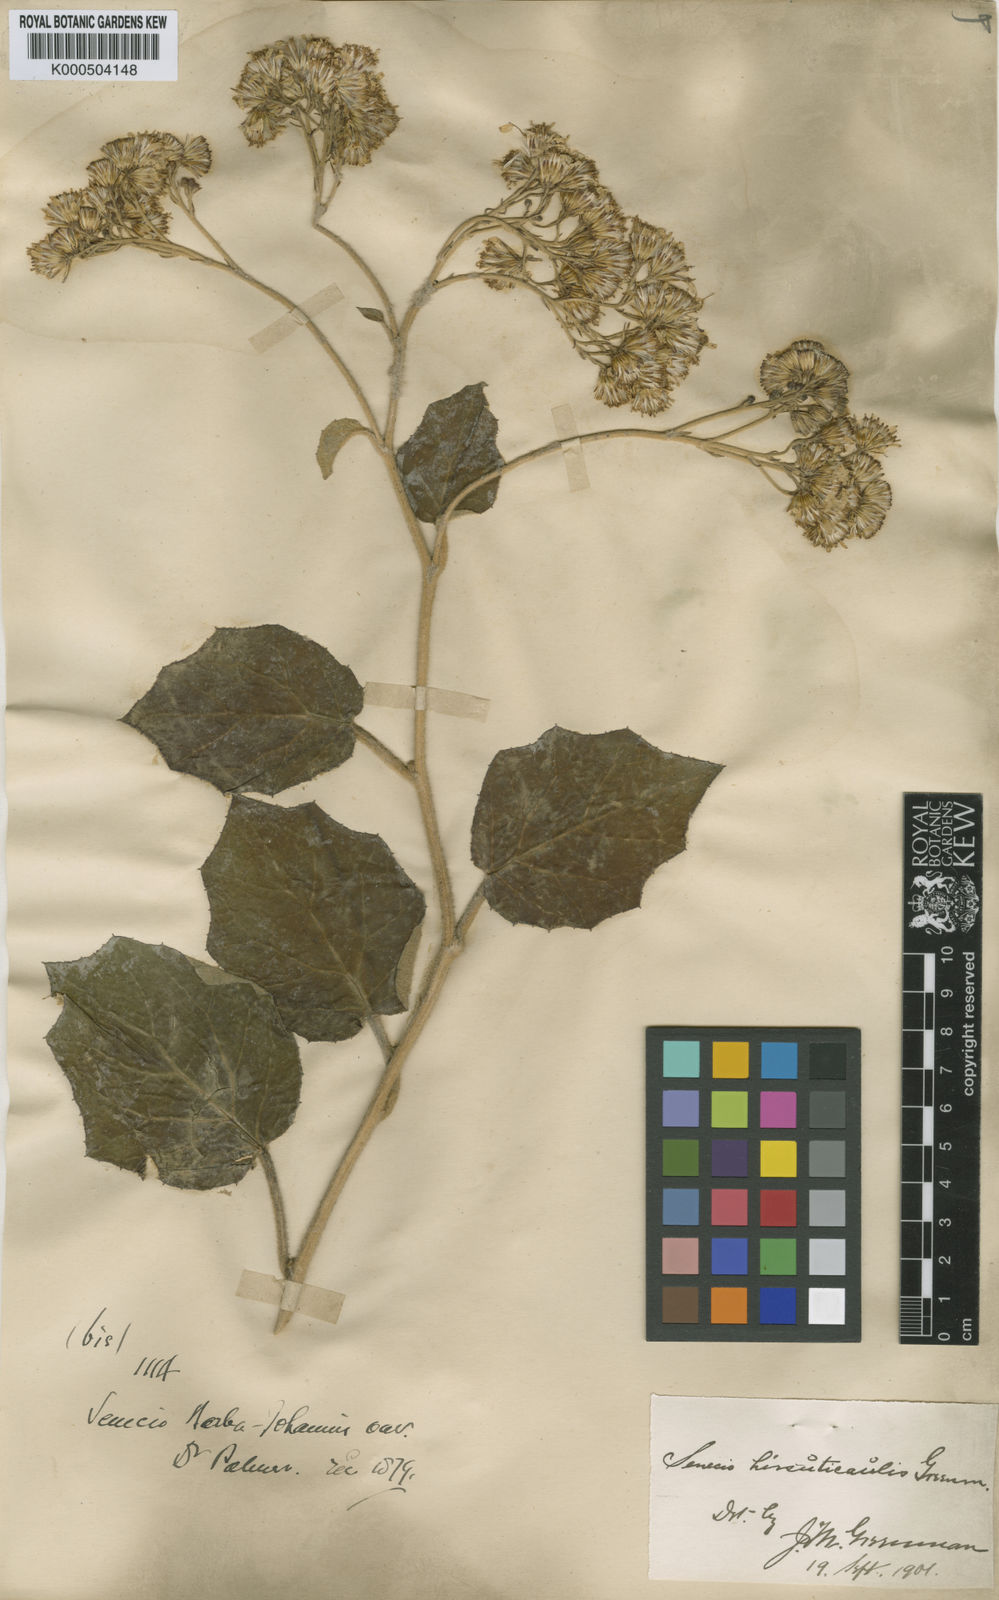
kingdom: Plantae
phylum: Tracheophyta
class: Magnoliopsida
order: Asterales
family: Asteraceae
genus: Roldana
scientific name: Roldana hirsuticaulis
